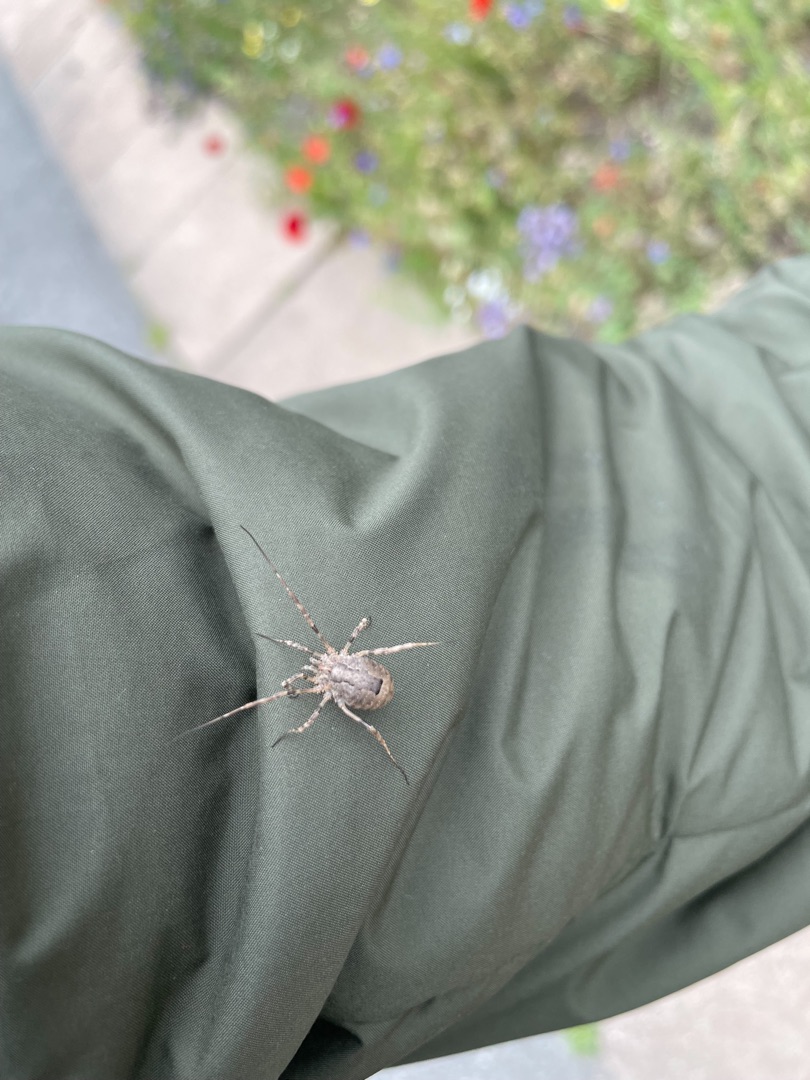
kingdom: Animalia
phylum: Arthropoda
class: Arachnida
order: Opiliones
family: Phalangiidae
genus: Odiellus
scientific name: Odiellus spinosus
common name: Kæmpemejer
